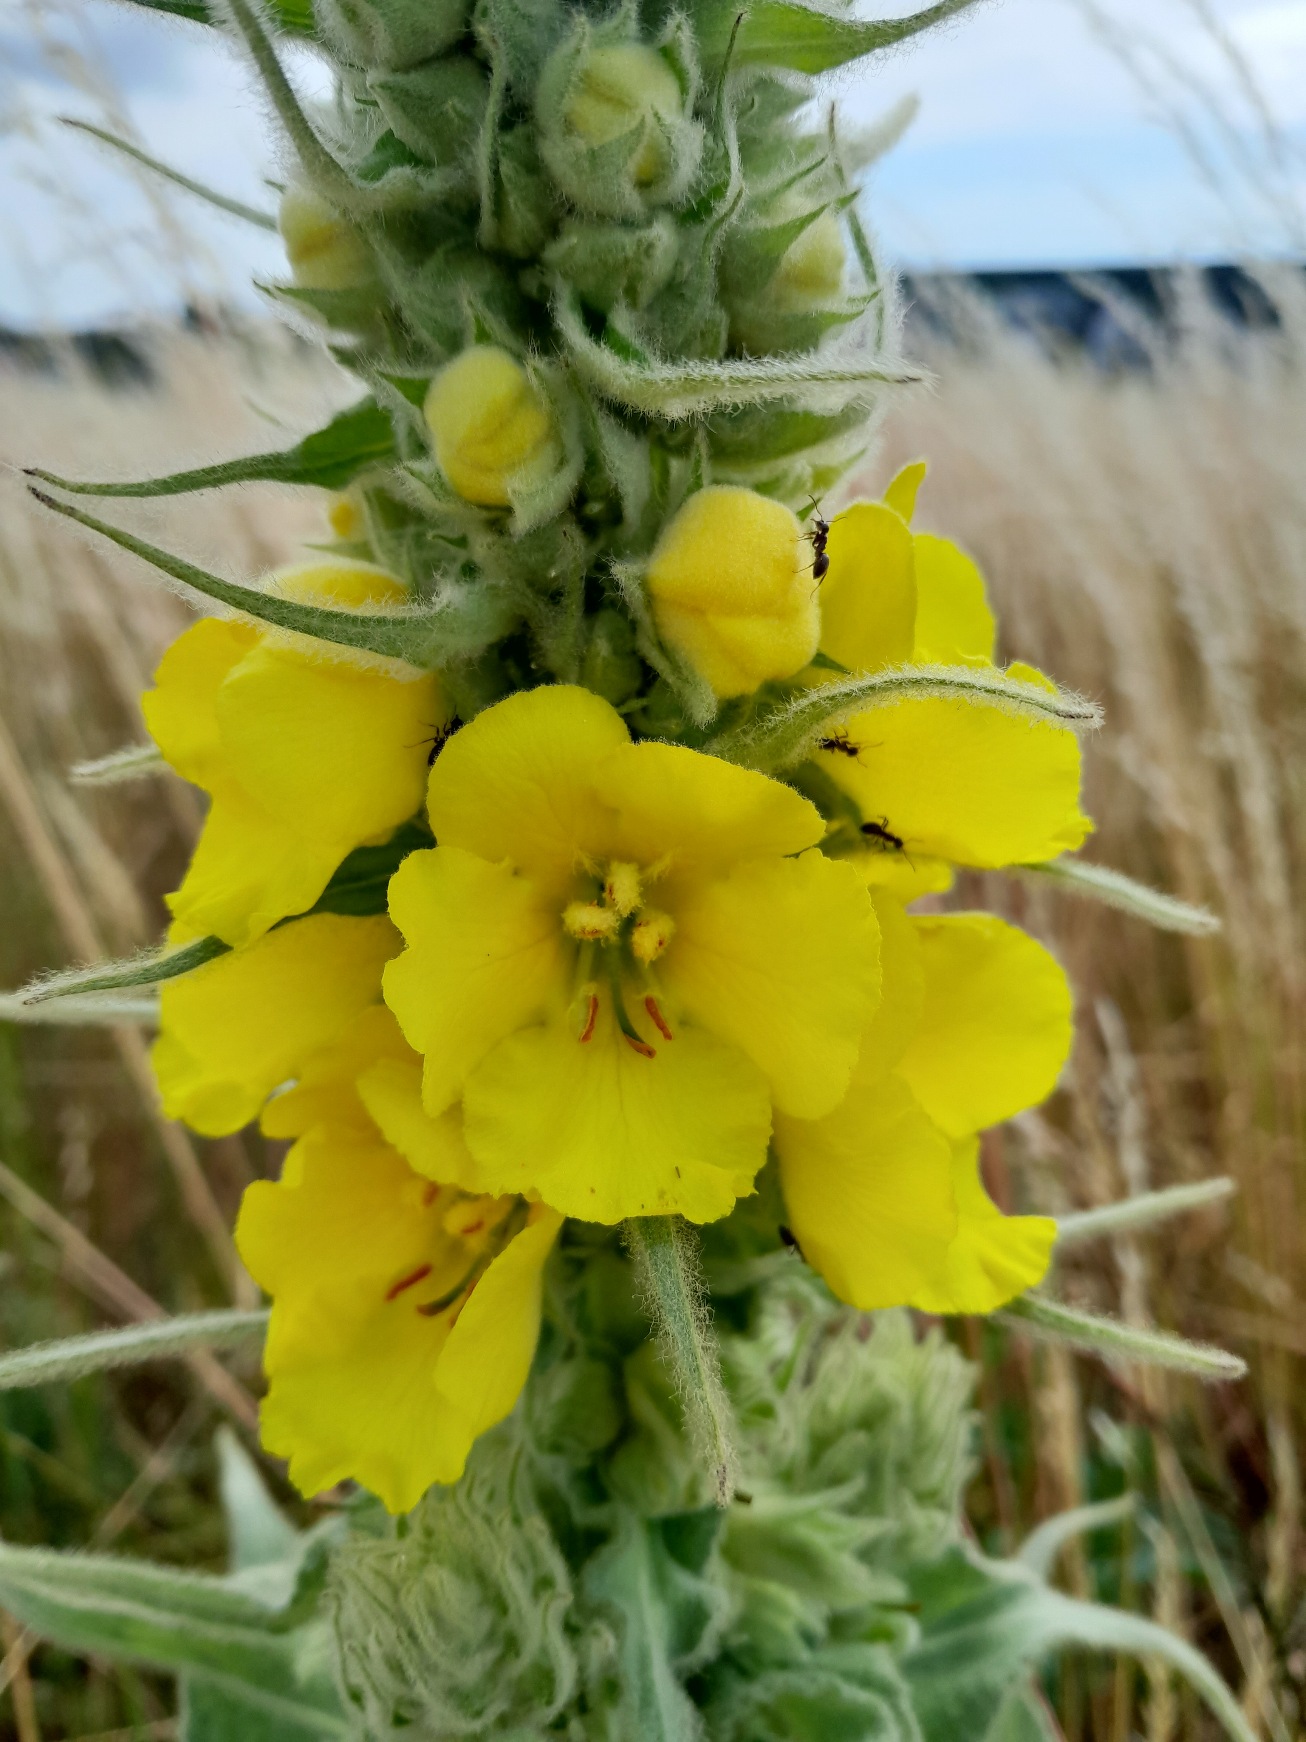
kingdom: Plantae
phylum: Tracheophyta
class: Magnoliopsida
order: Lamiales
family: Scrophulariaceae
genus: Verbascum
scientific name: Verbascum densiflorum
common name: Uldbladet kongelys
